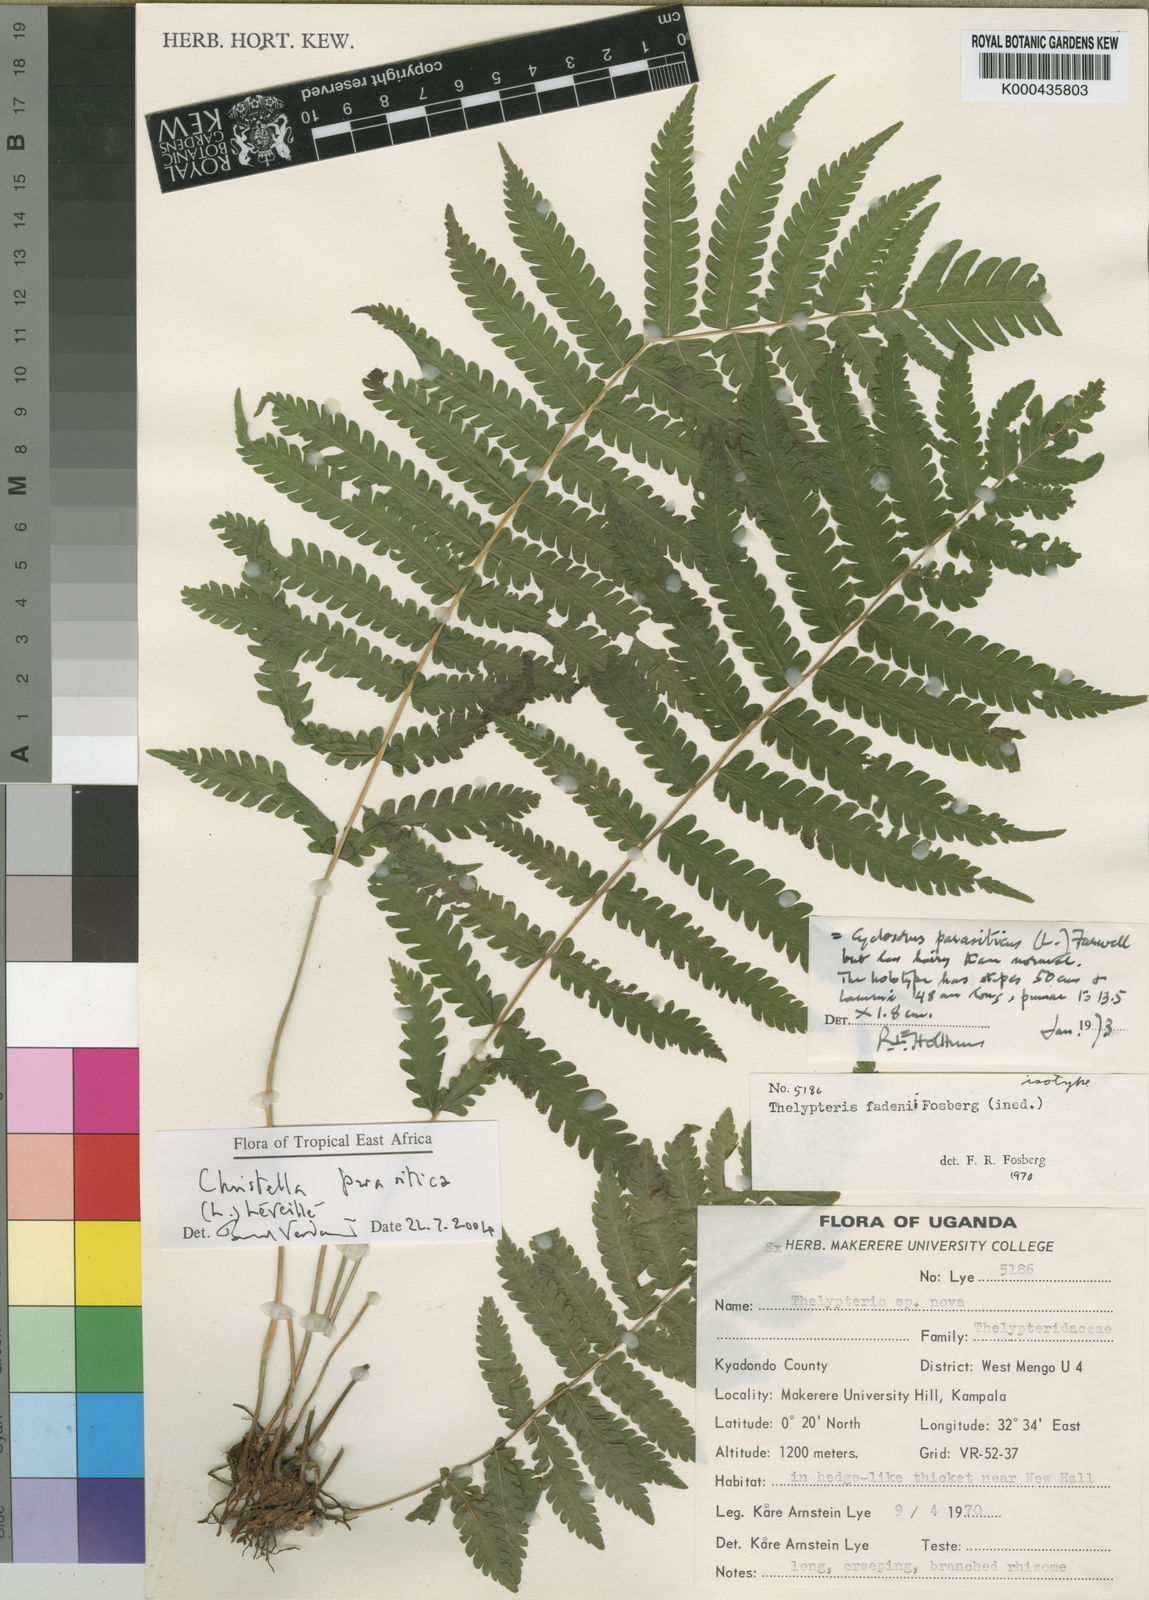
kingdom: Plantae
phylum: Tracheophyta
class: Polypodiopsida
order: Polypodiales
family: Thelypteridaceae
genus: Christella
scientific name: Christella parasitica
